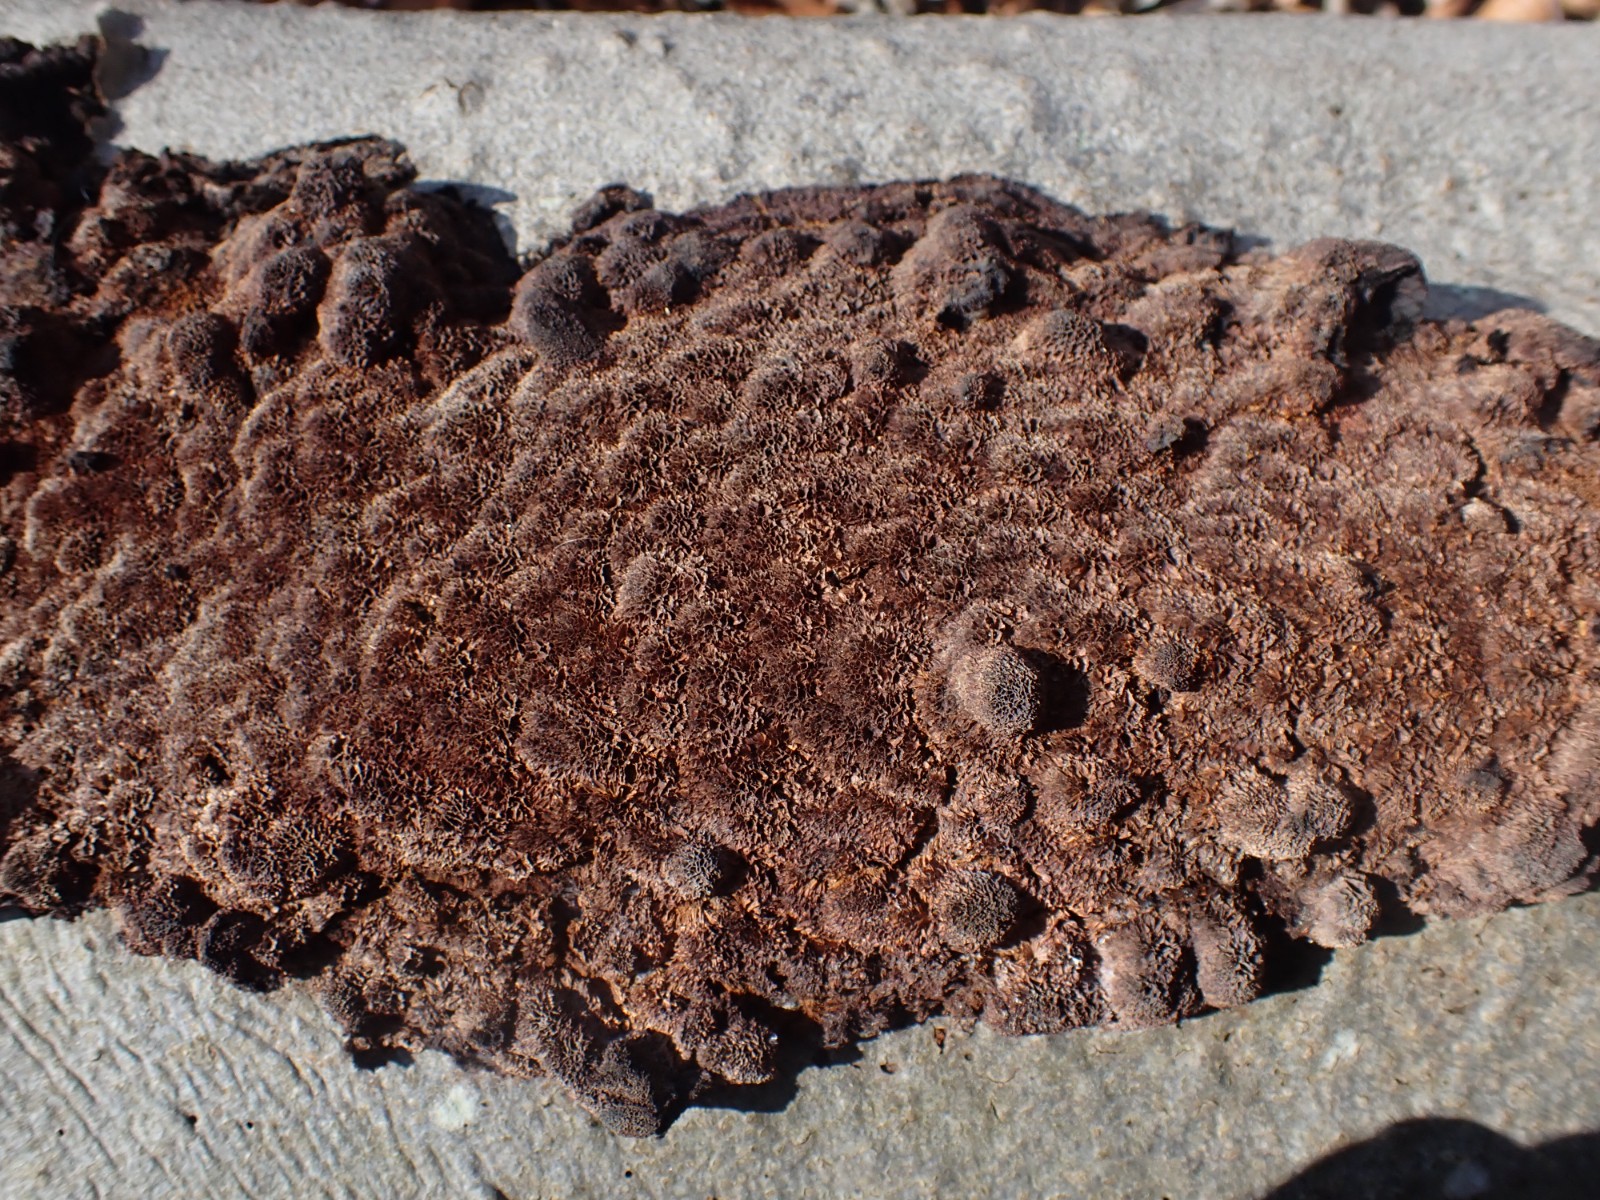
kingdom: Fungi
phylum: Basidiomycota
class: Agaricomycetes
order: Hymenochaetales
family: Hymenochaetaceae
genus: Fuscoporia
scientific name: Fuscoporia
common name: Ildporesvamp
